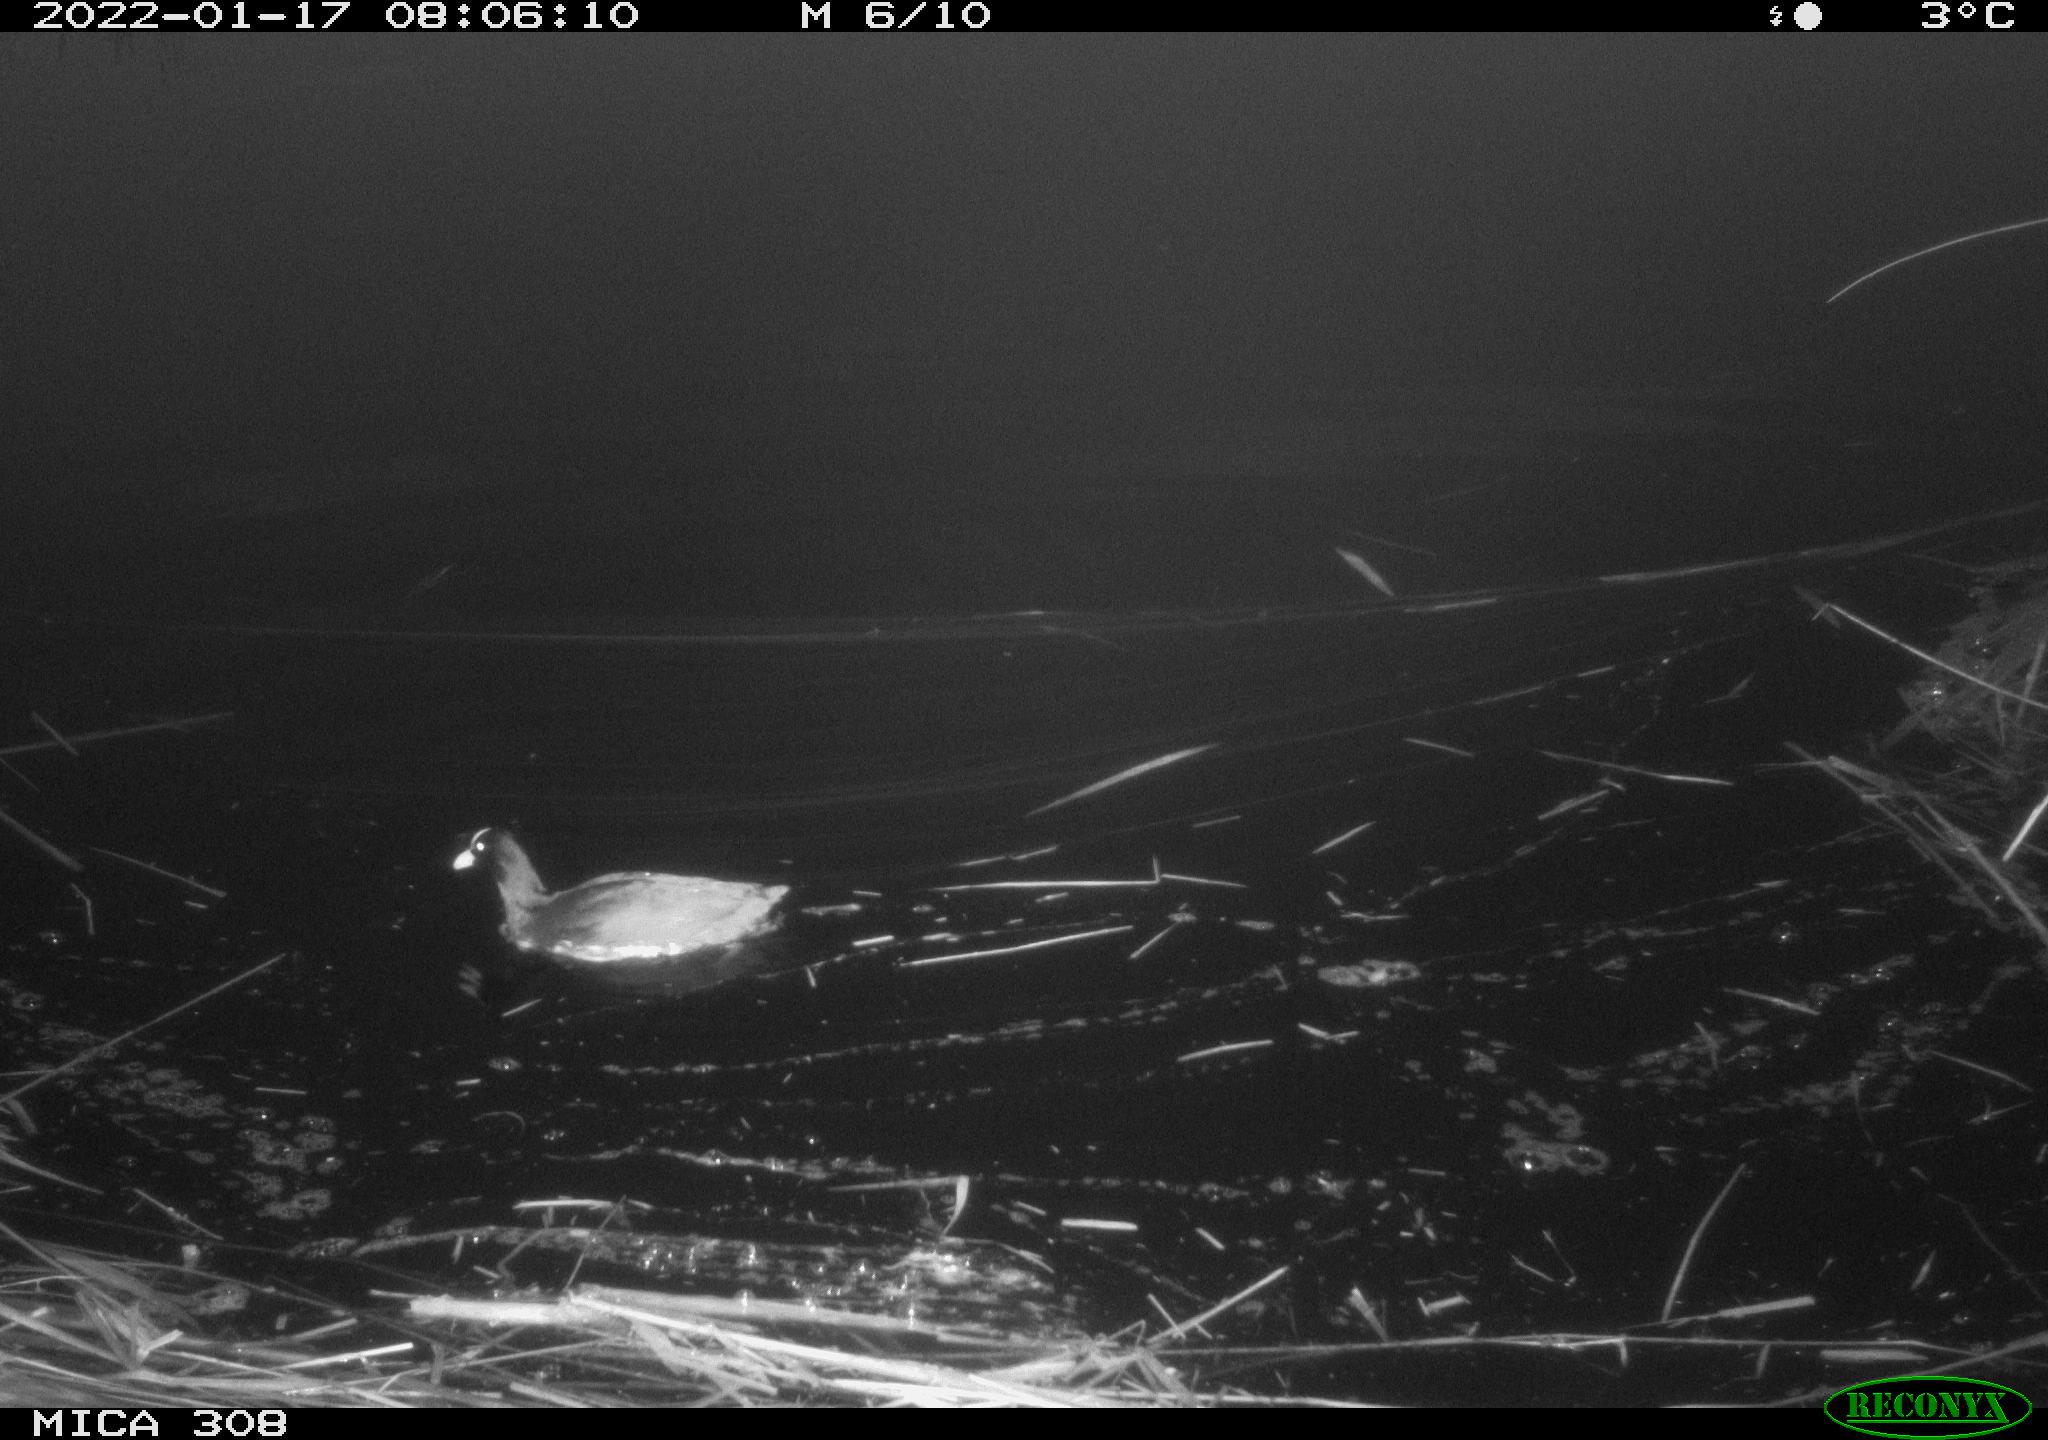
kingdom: Animalia
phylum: Chordata
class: Aves
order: Anseriformes
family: Anatidae
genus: Anas
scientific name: Anas
